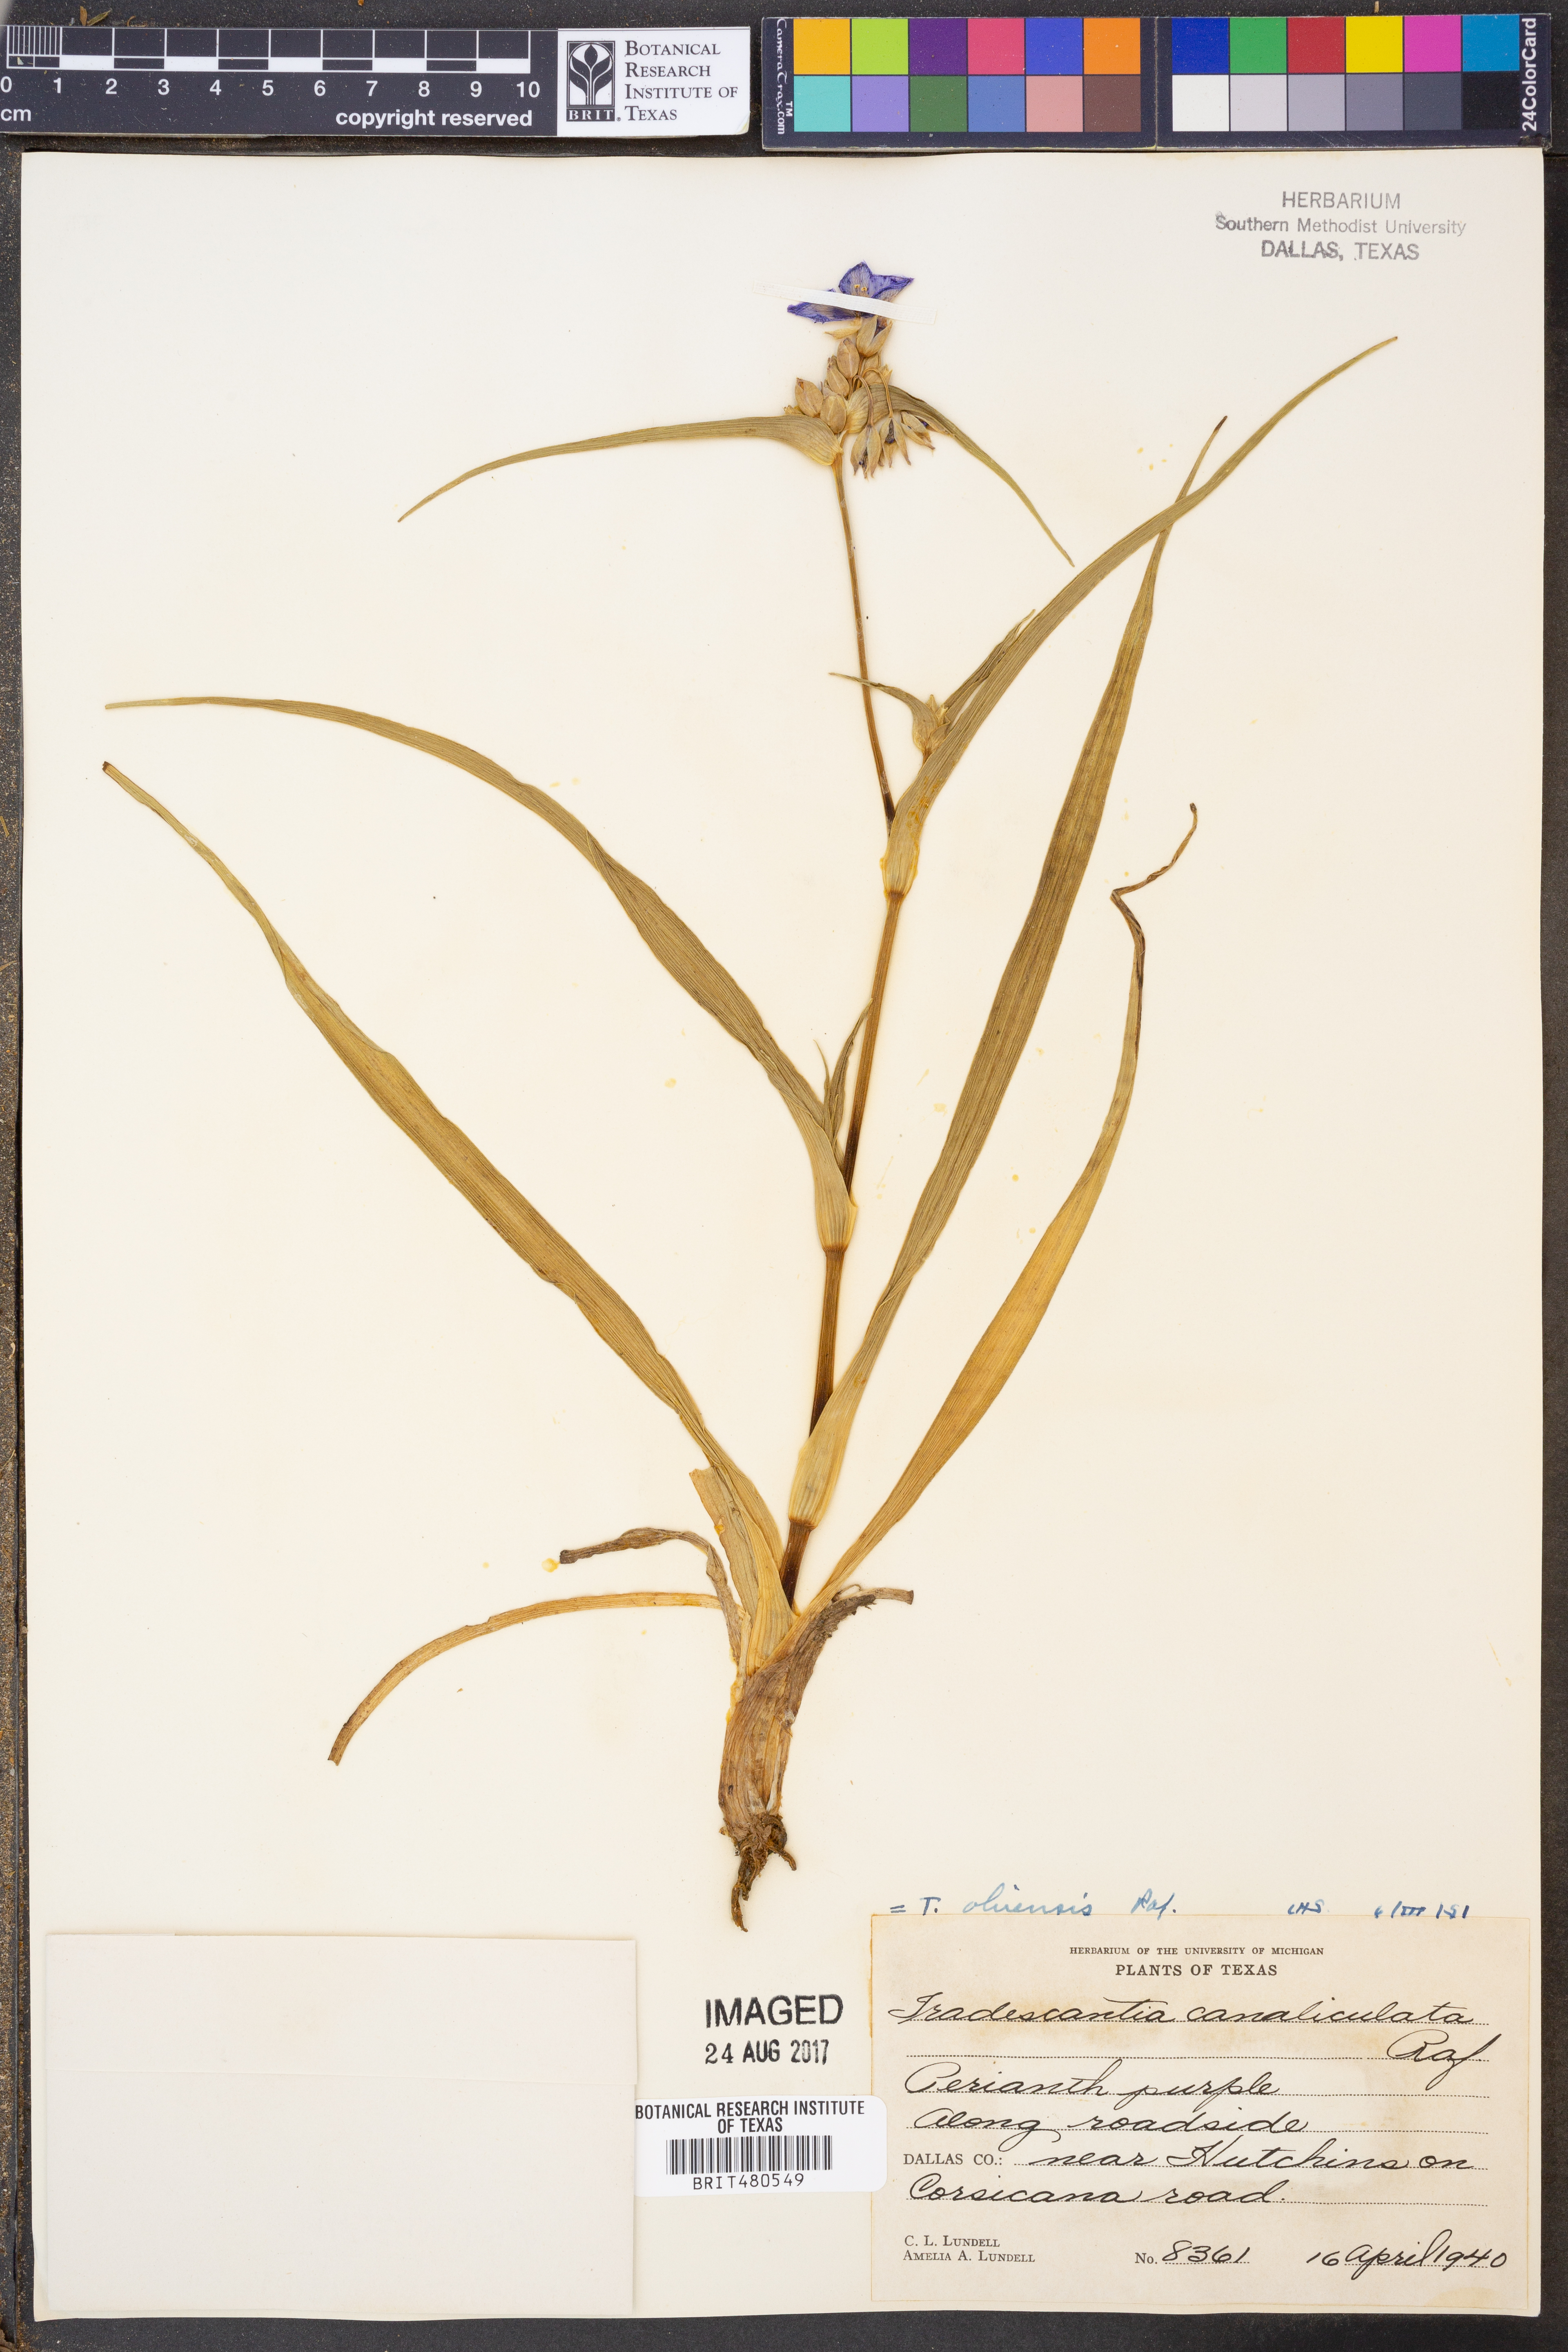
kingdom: Plantae
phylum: Tracheophyta
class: Liliopsida
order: Commelinales
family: Commelinaceae
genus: Tradescantia
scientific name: Tradescantia ohiensis
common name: Ohio spiderwort
